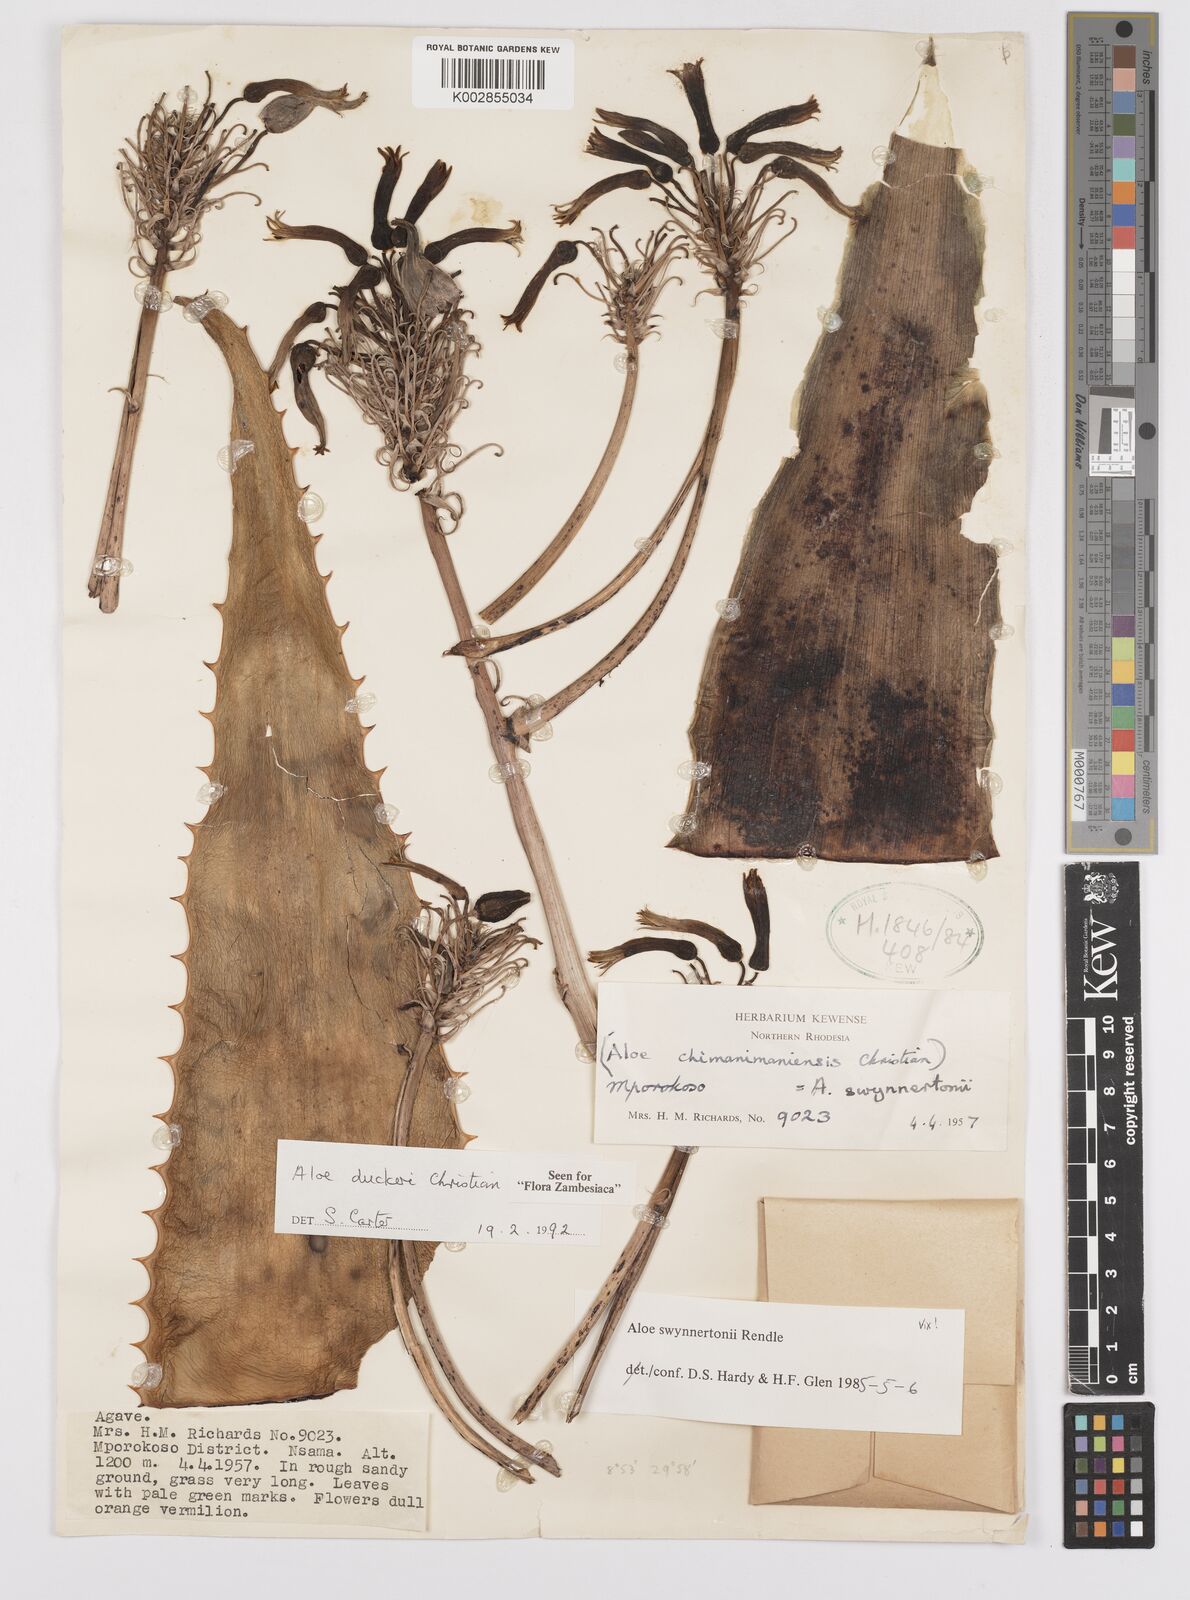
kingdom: Plantae
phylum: Tracheophyta
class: Liliopsida
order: Asparagales
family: Asphodelaceae
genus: Aloe
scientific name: Aloe duckeri
